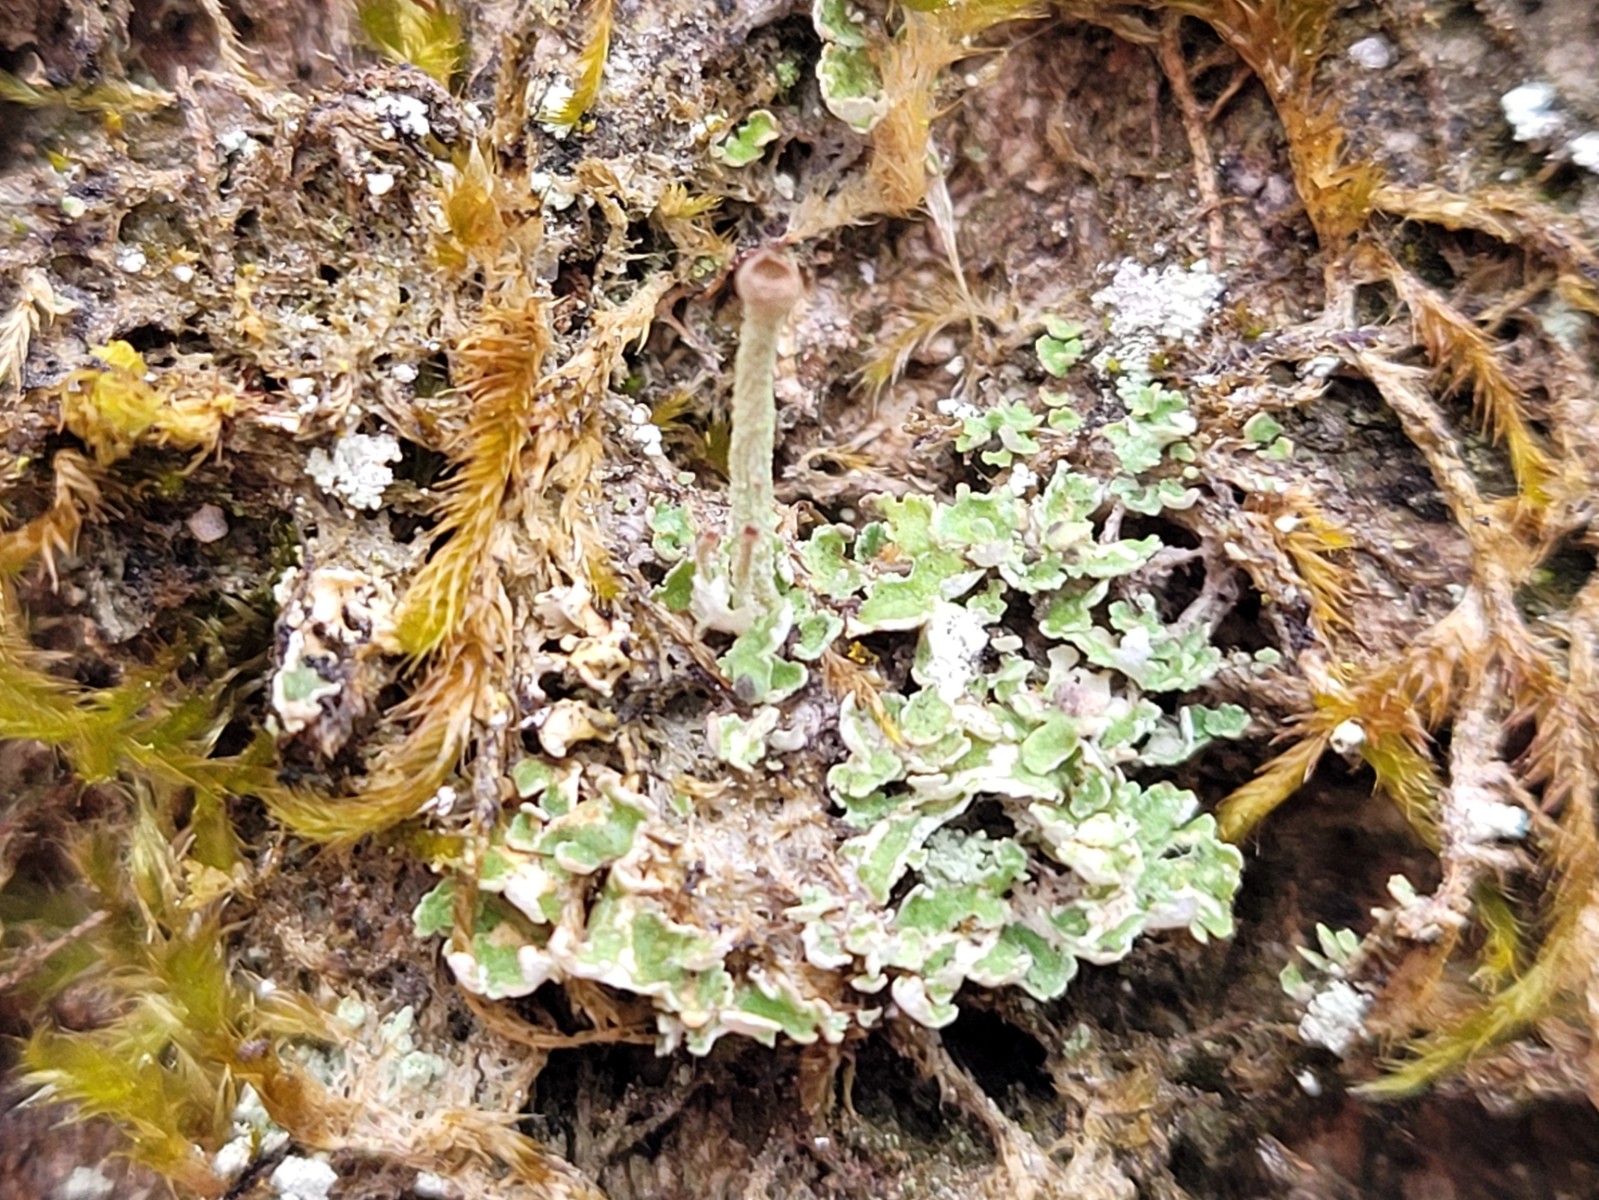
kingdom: Fungi
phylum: Ascomycota
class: Lecanoromycetes
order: Lecanorales
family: Cladoniaceae
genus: Cladonia
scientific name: Cladonia
